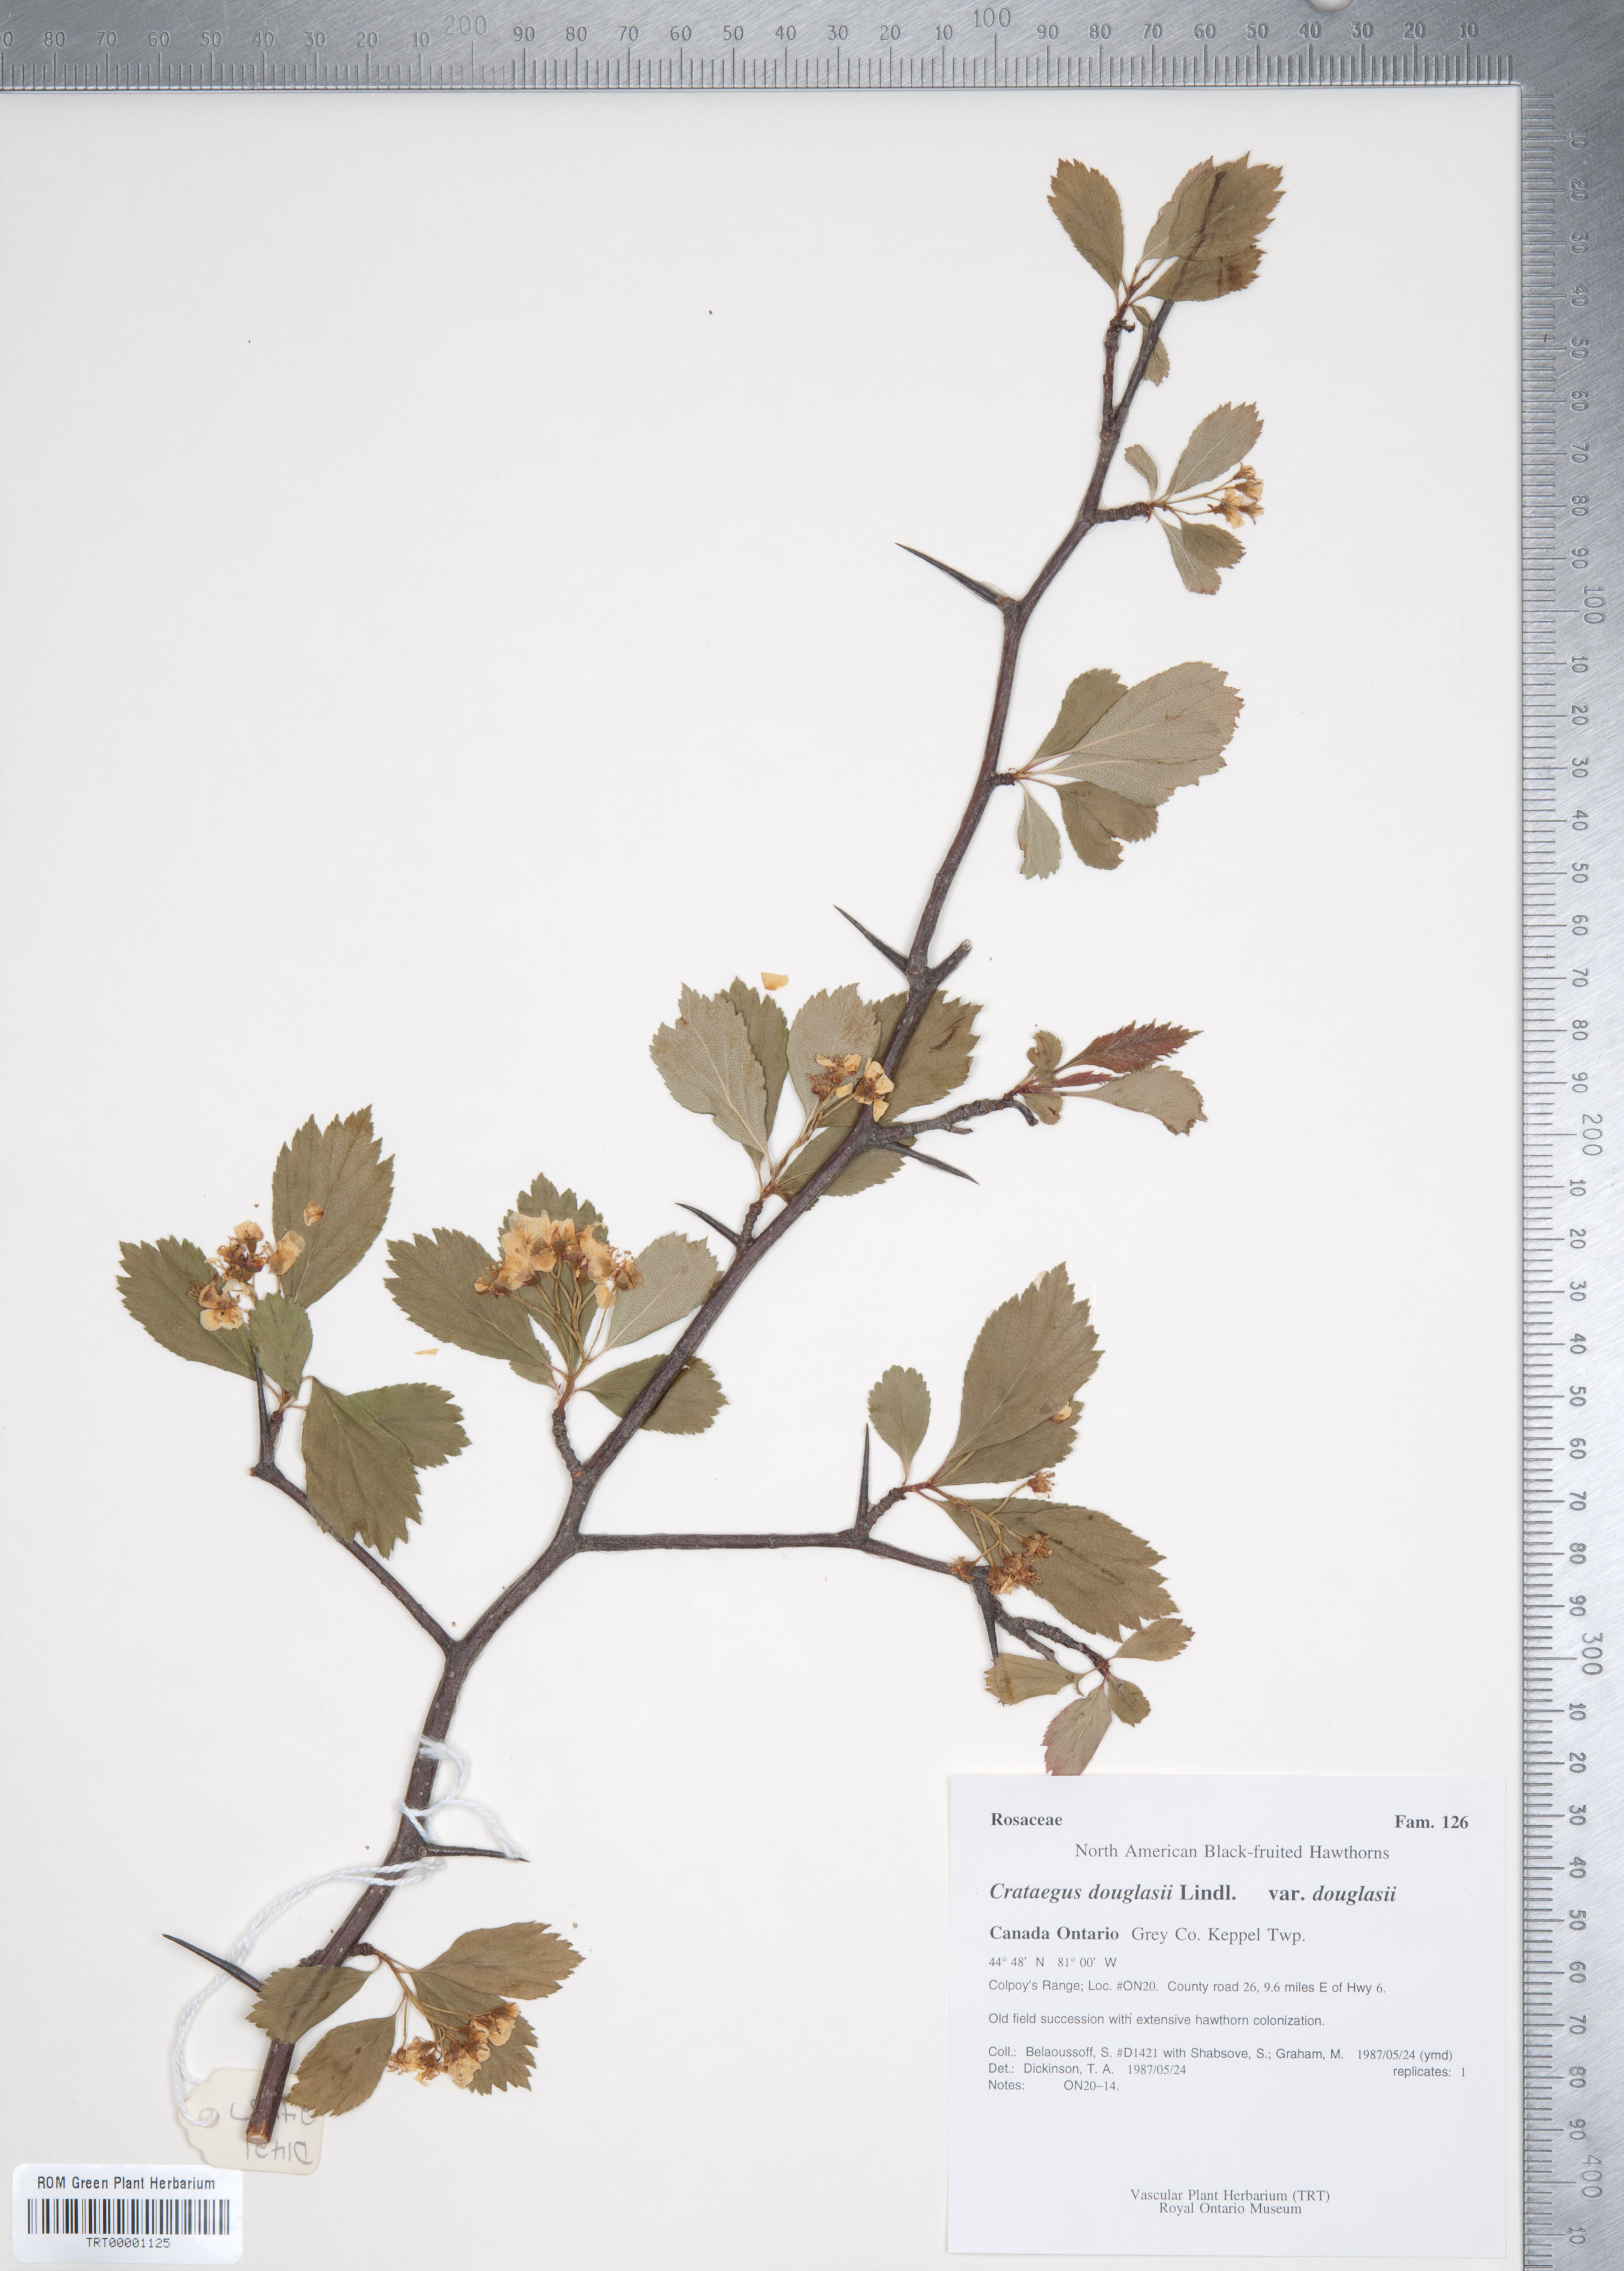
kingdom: Plantae
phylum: Tracheophyta
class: Magnoliopsida
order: Rosales
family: Rosaceae
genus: Crataegus
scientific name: Crataegus douglasii
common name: Black hawthorn
